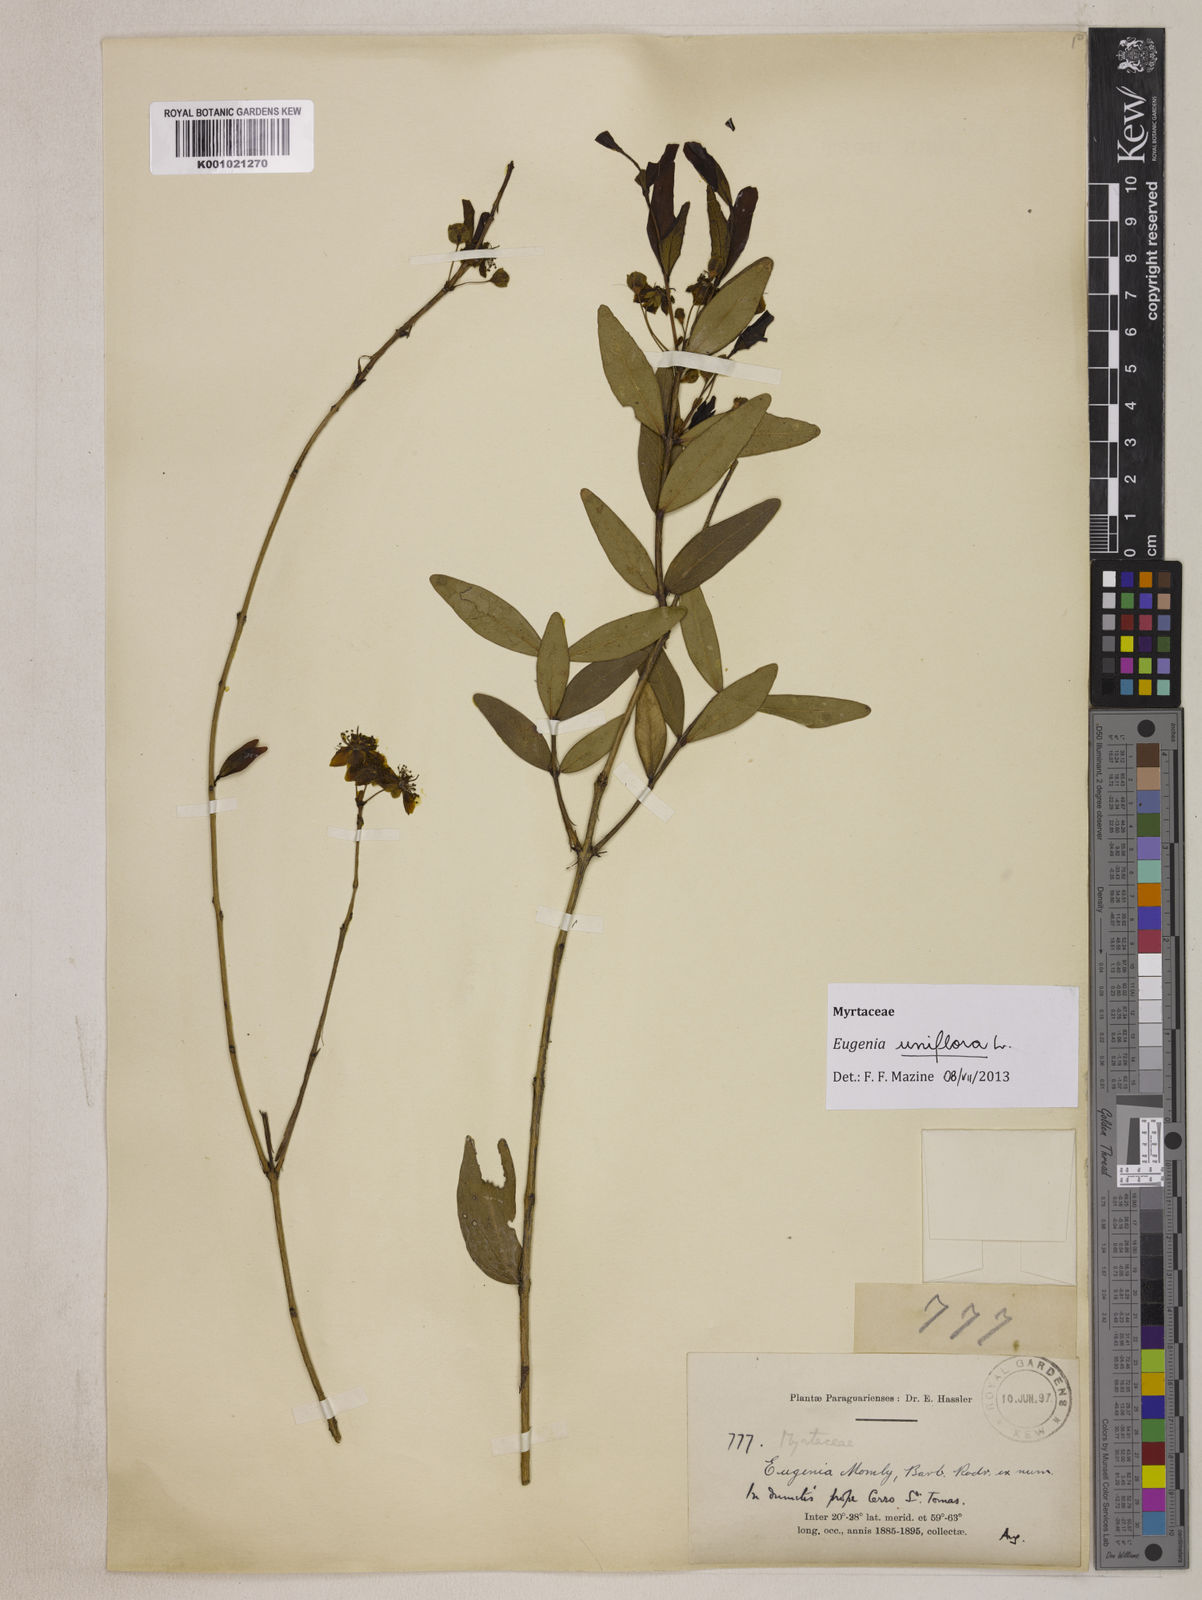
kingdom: Plantae
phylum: Tracheophyta
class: Magnoliopsida
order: Myrtales
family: Myrtaceae
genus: Eugenia
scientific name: Eugenia uniflora
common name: Surinam cherry
